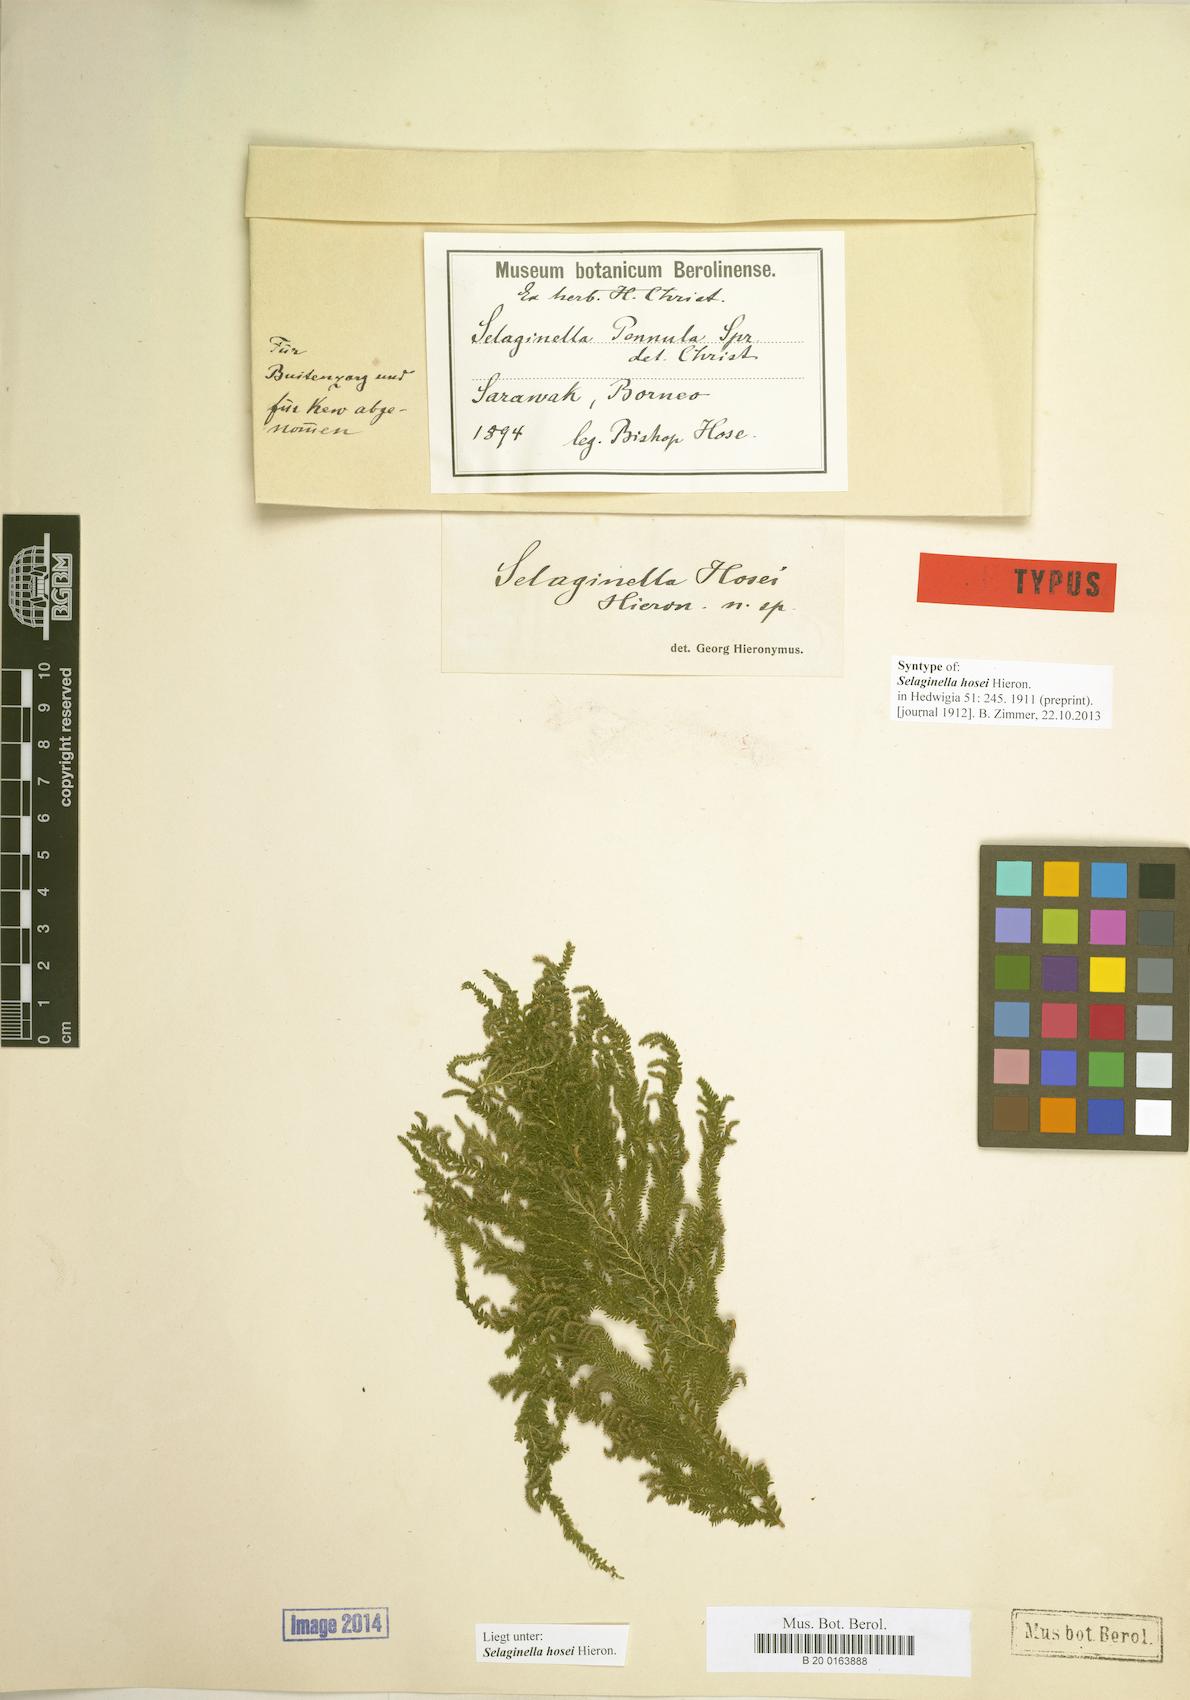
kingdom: Plantae
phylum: Tracheophyta
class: Lycopodiopsida
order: Selaginellales
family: Selaginellaceae
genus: Selaginella
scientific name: Selaginella hosei
